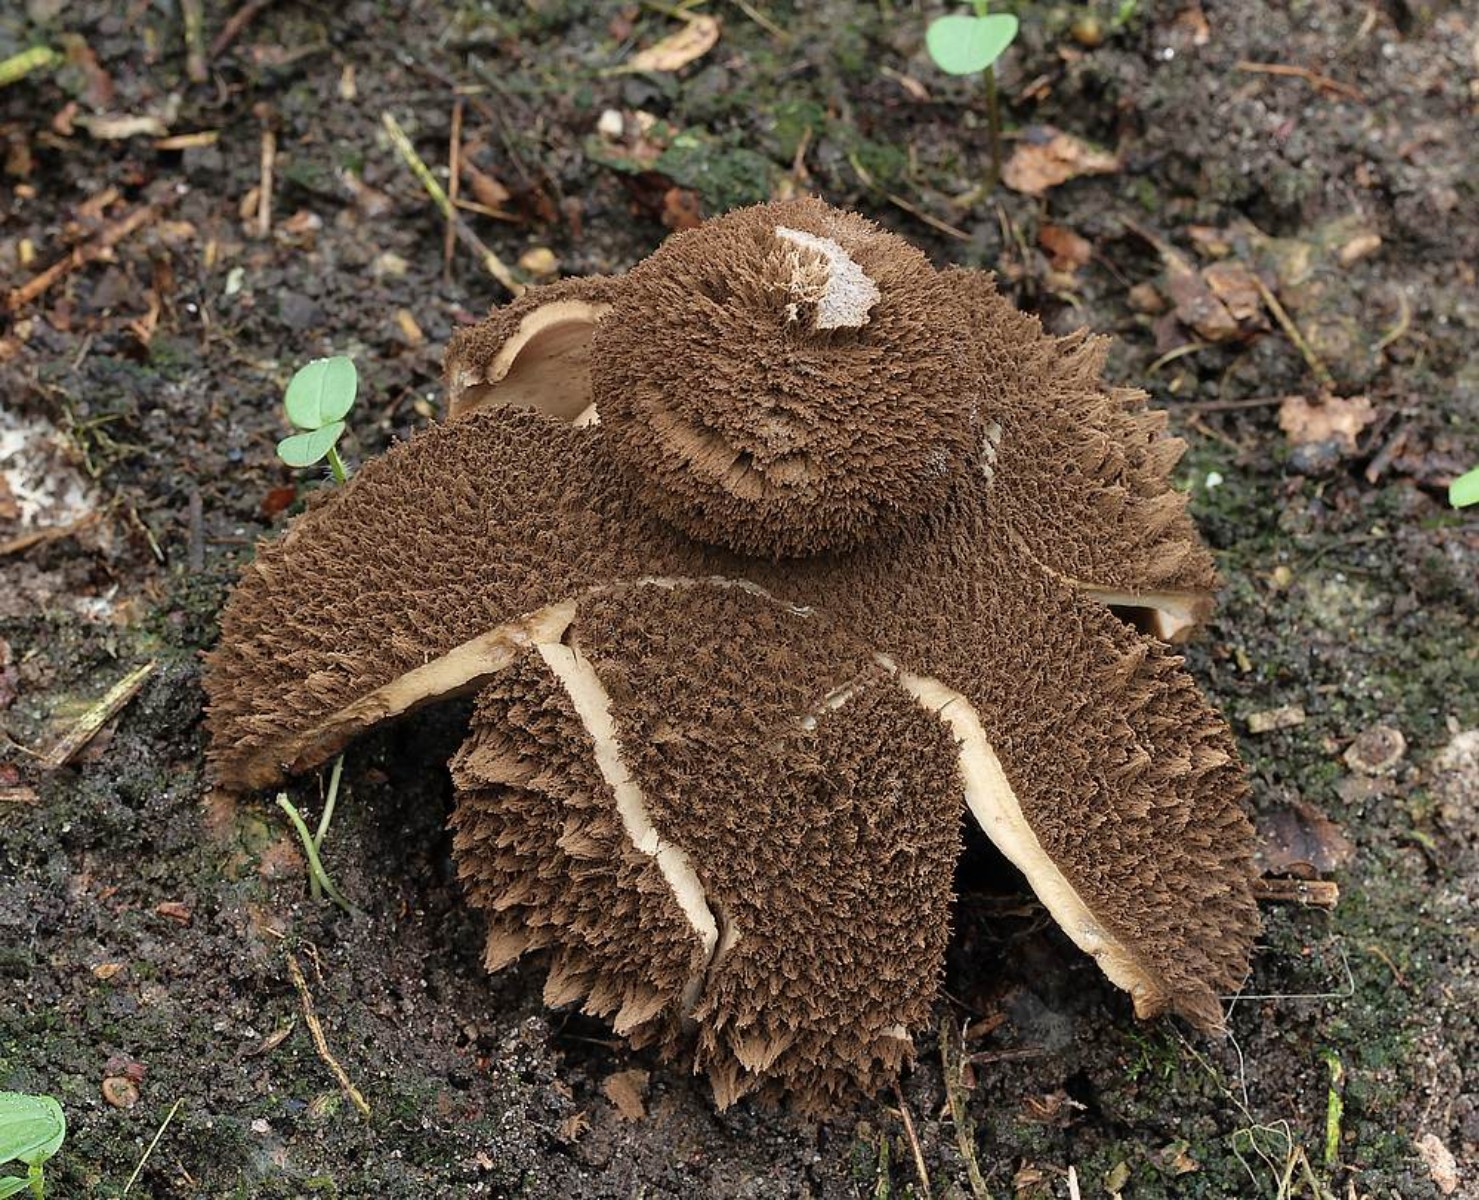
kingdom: Fungi
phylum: Basidiomycota
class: Agaricomycetes
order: Geastrales
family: Geastraceae
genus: Geastrum
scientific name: Geastrum melanocephalum
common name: håret stjernebold
